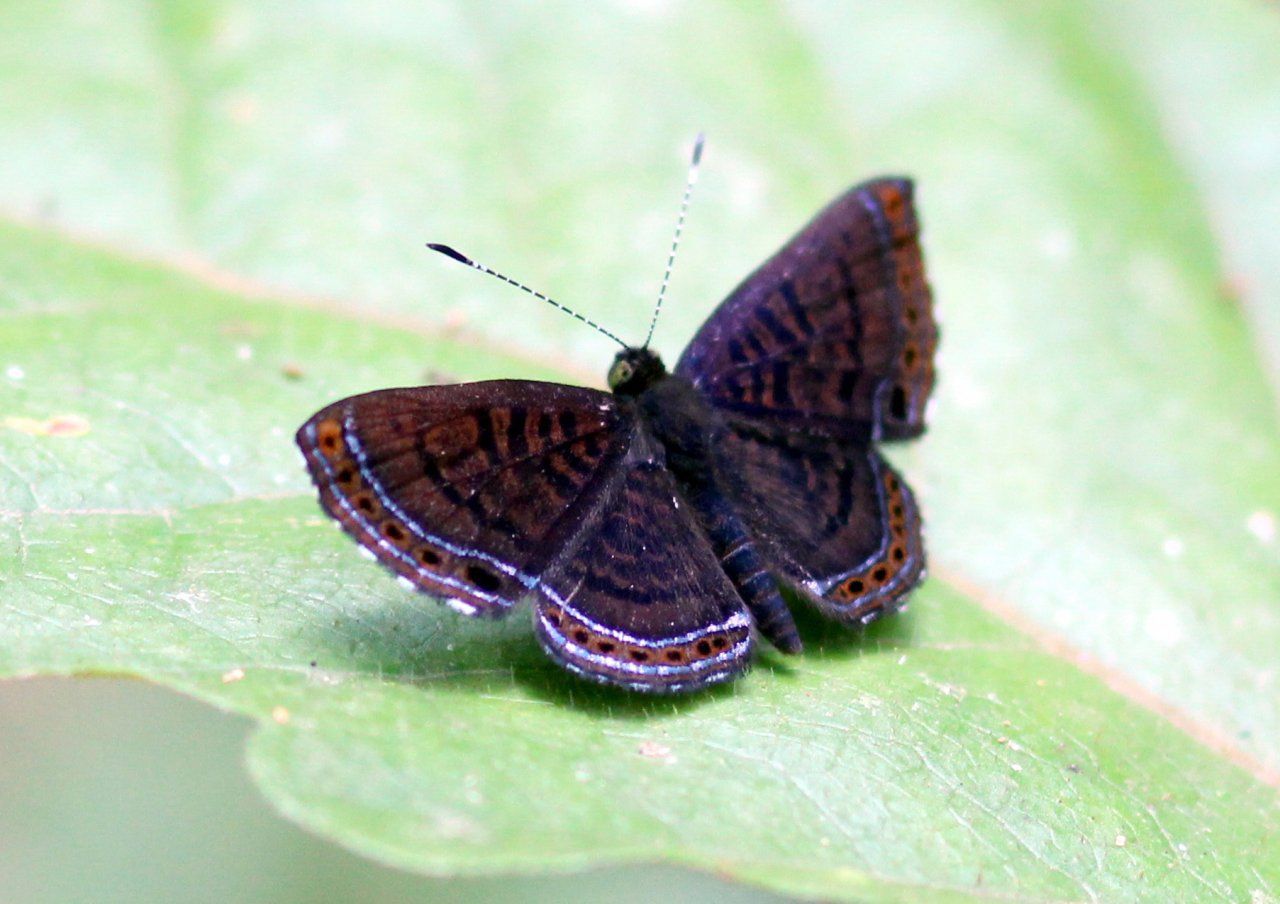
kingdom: Animalia
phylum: Arthropoda
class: Insecta
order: Lepidoptera
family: Riodinidae
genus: Detritivora
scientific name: Detritivora
